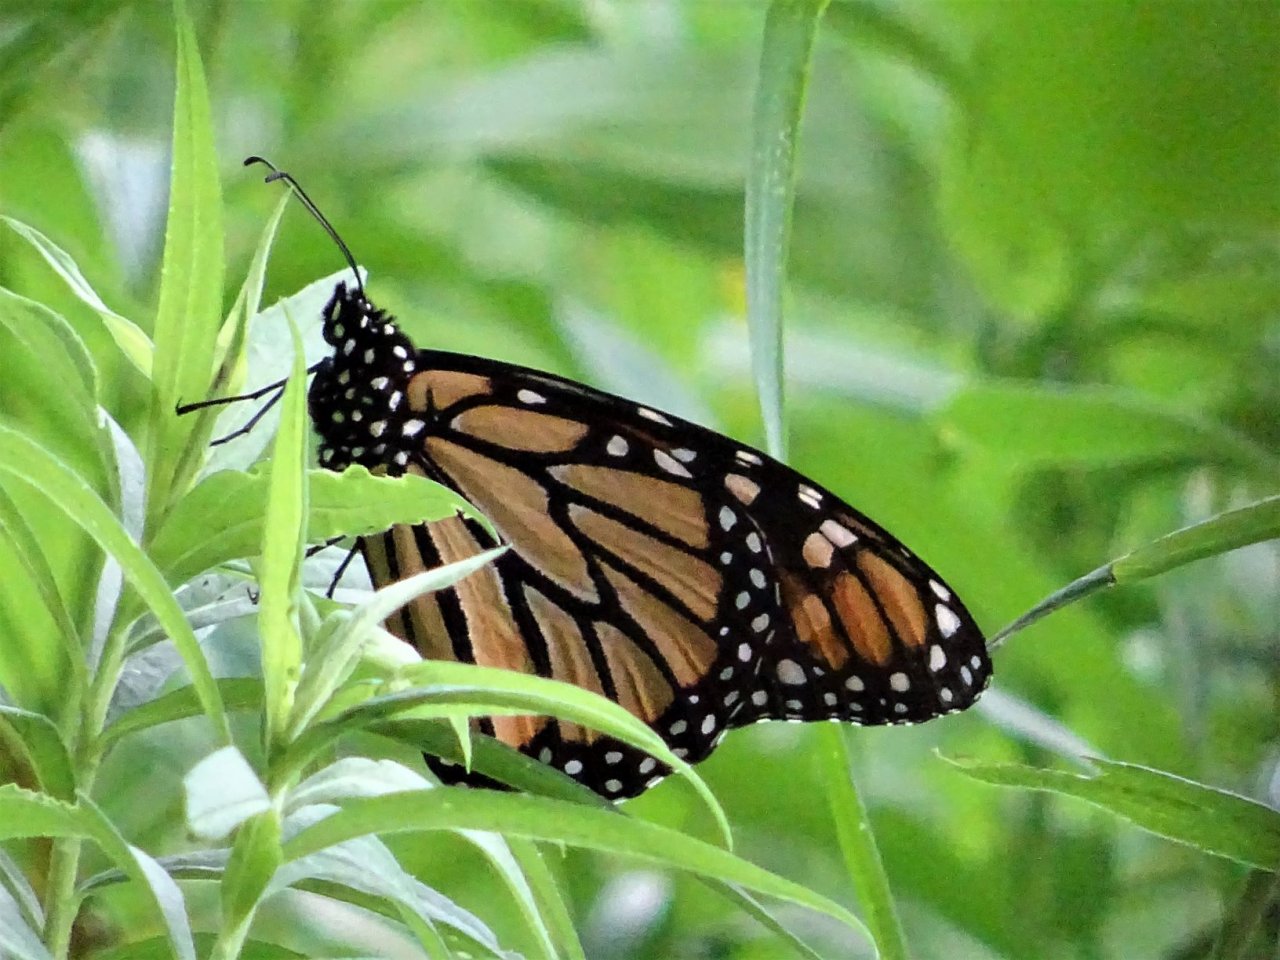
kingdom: Animalia
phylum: Arthropoda
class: Insecta
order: Lepidoptera
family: Nymphalidae
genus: Danaus
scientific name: Danaus plexippus
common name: Monarch
